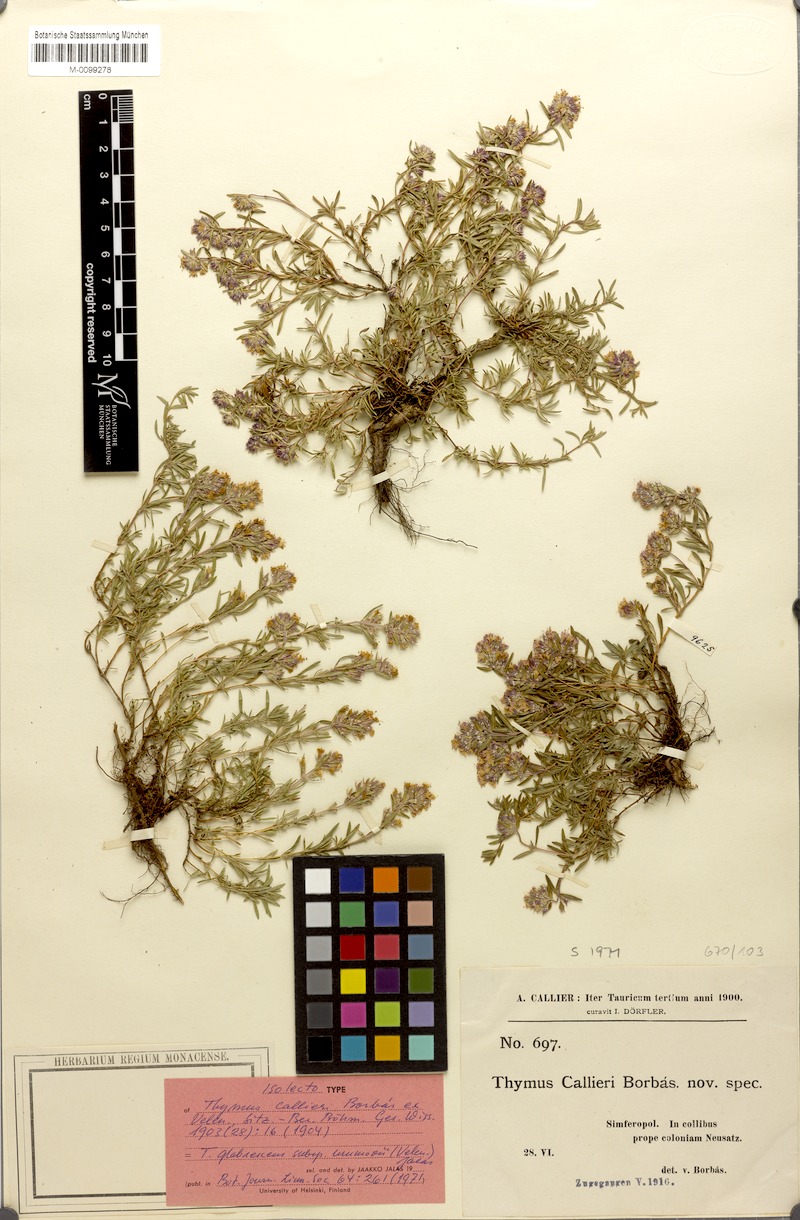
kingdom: Plantae
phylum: Tracheophyta
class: Magnoliopsida
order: Lamiales
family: Lamiaceae
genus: Thymus
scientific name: Thymus roegneri
